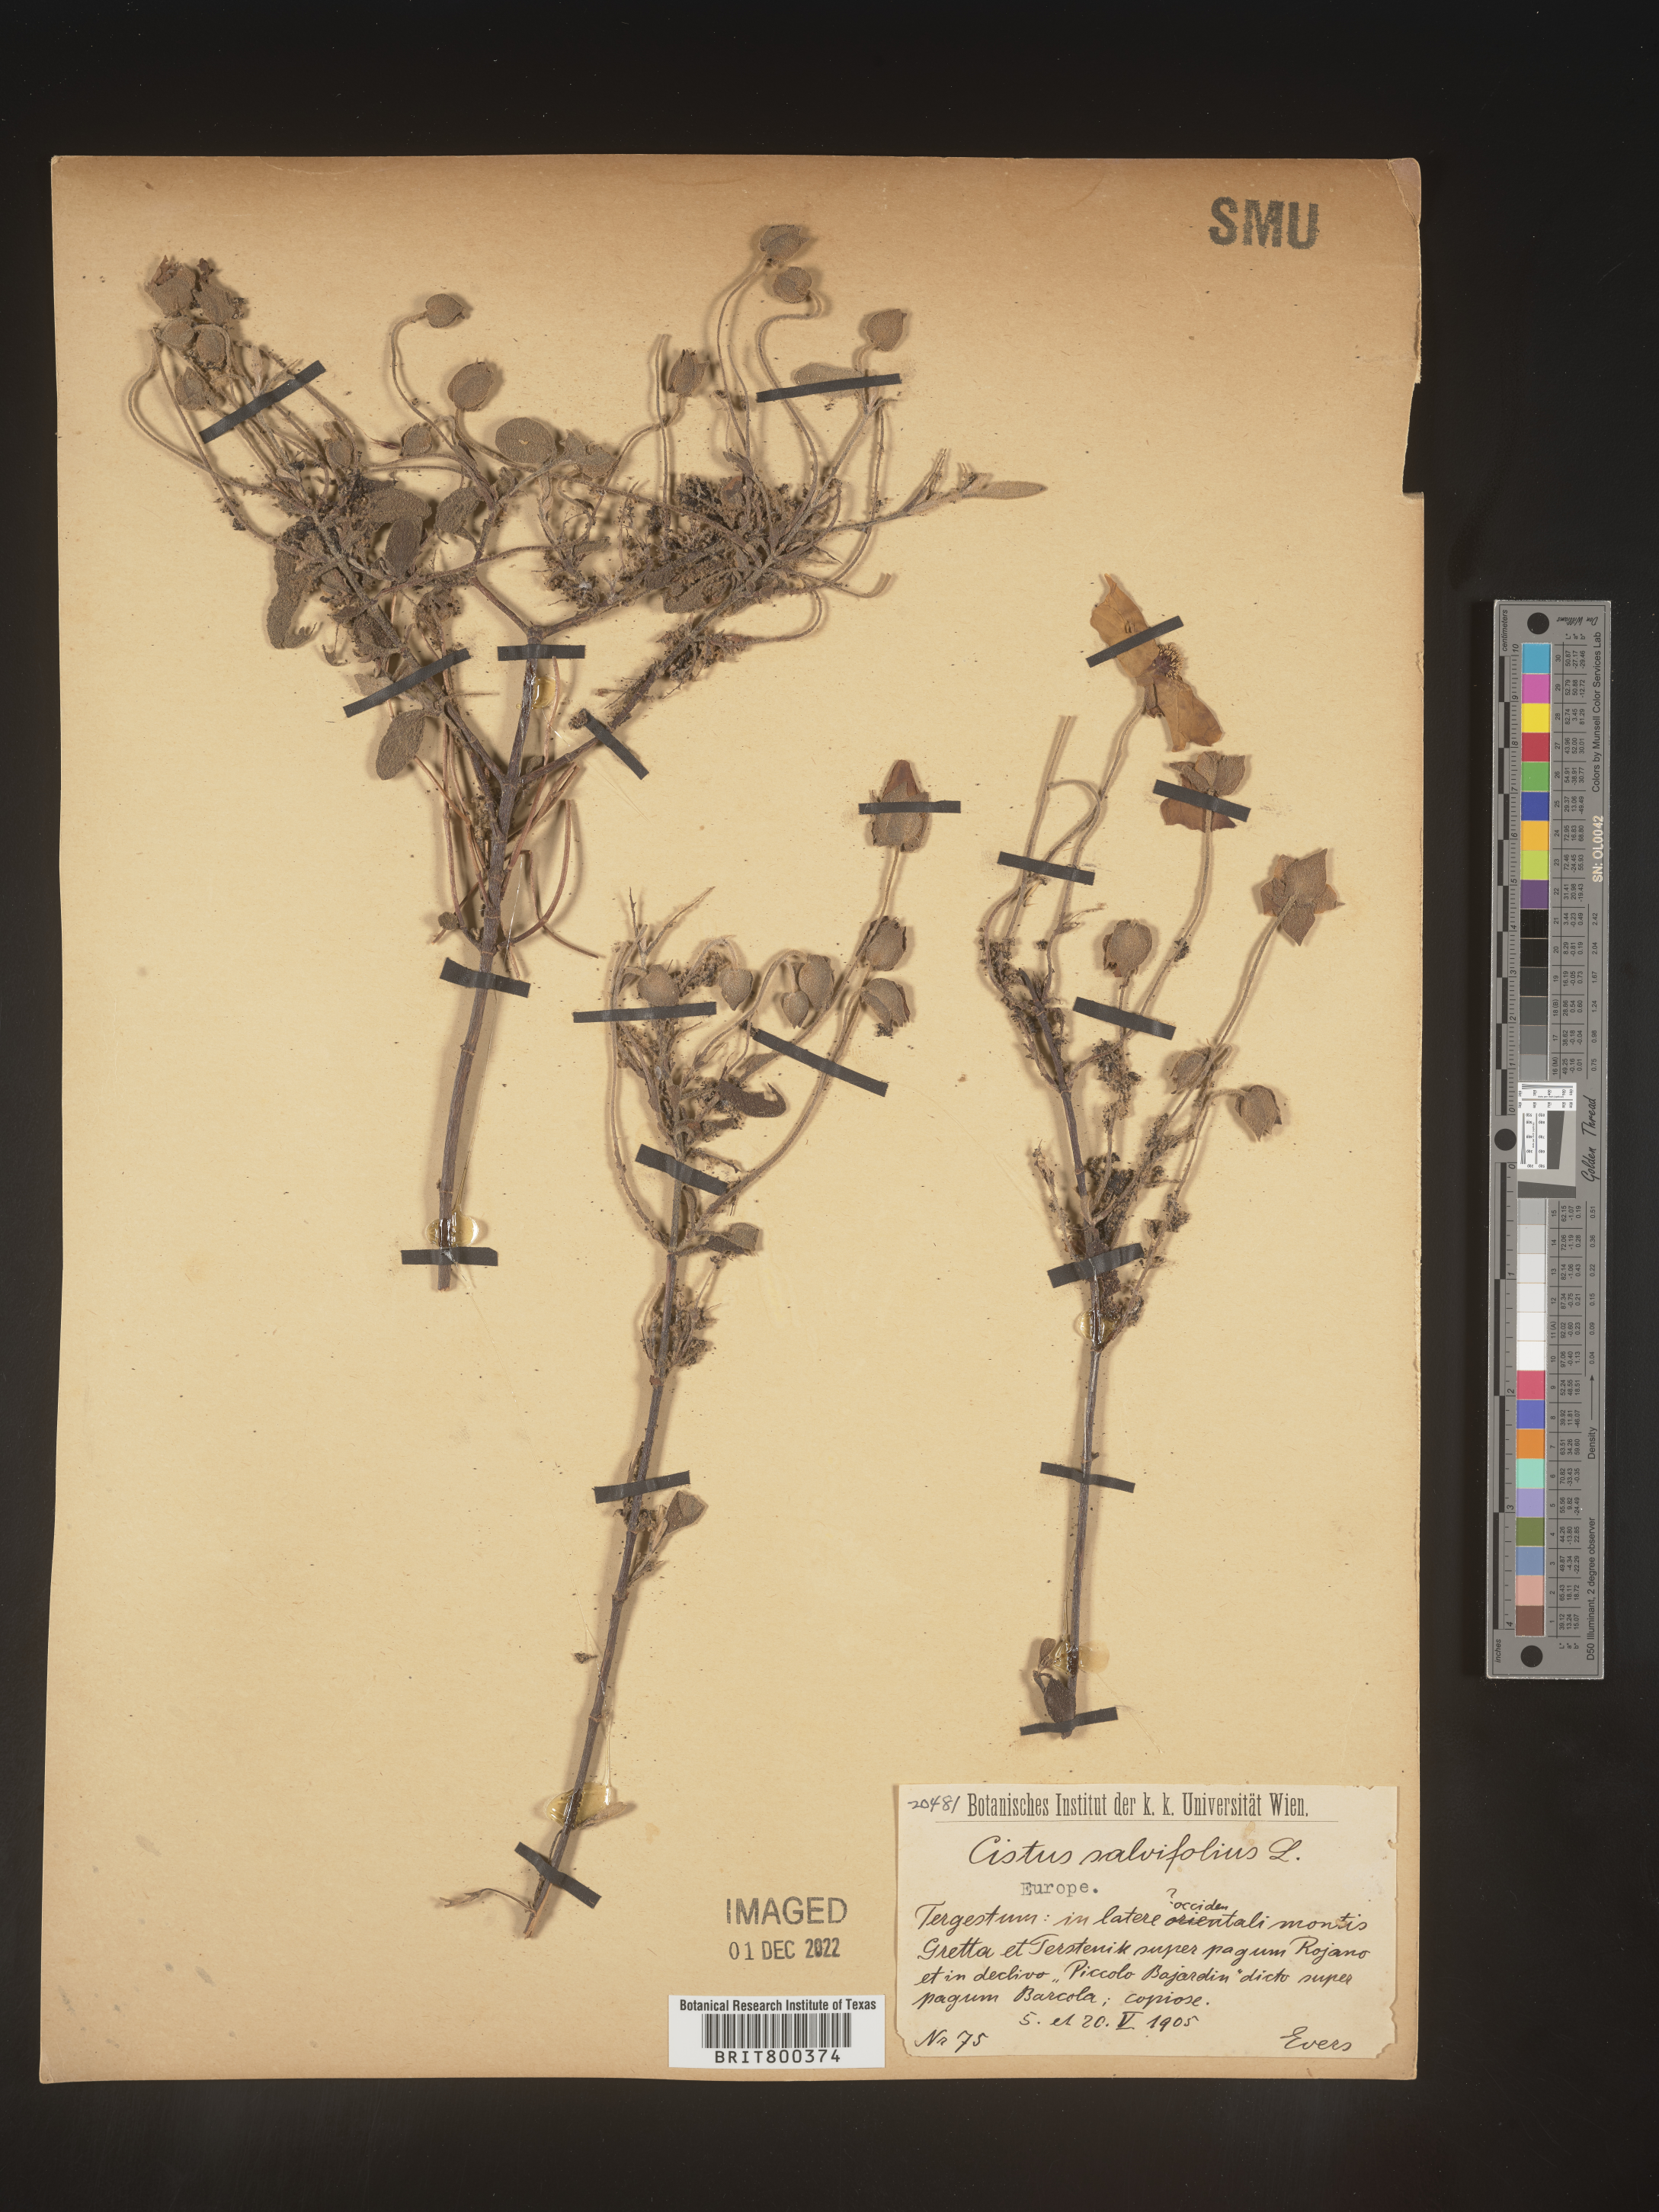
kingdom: Plantae
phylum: Tracheophyta
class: Magnoliopsida
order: Malvales
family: Cistaceae
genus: Cistus
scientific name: Cistus
